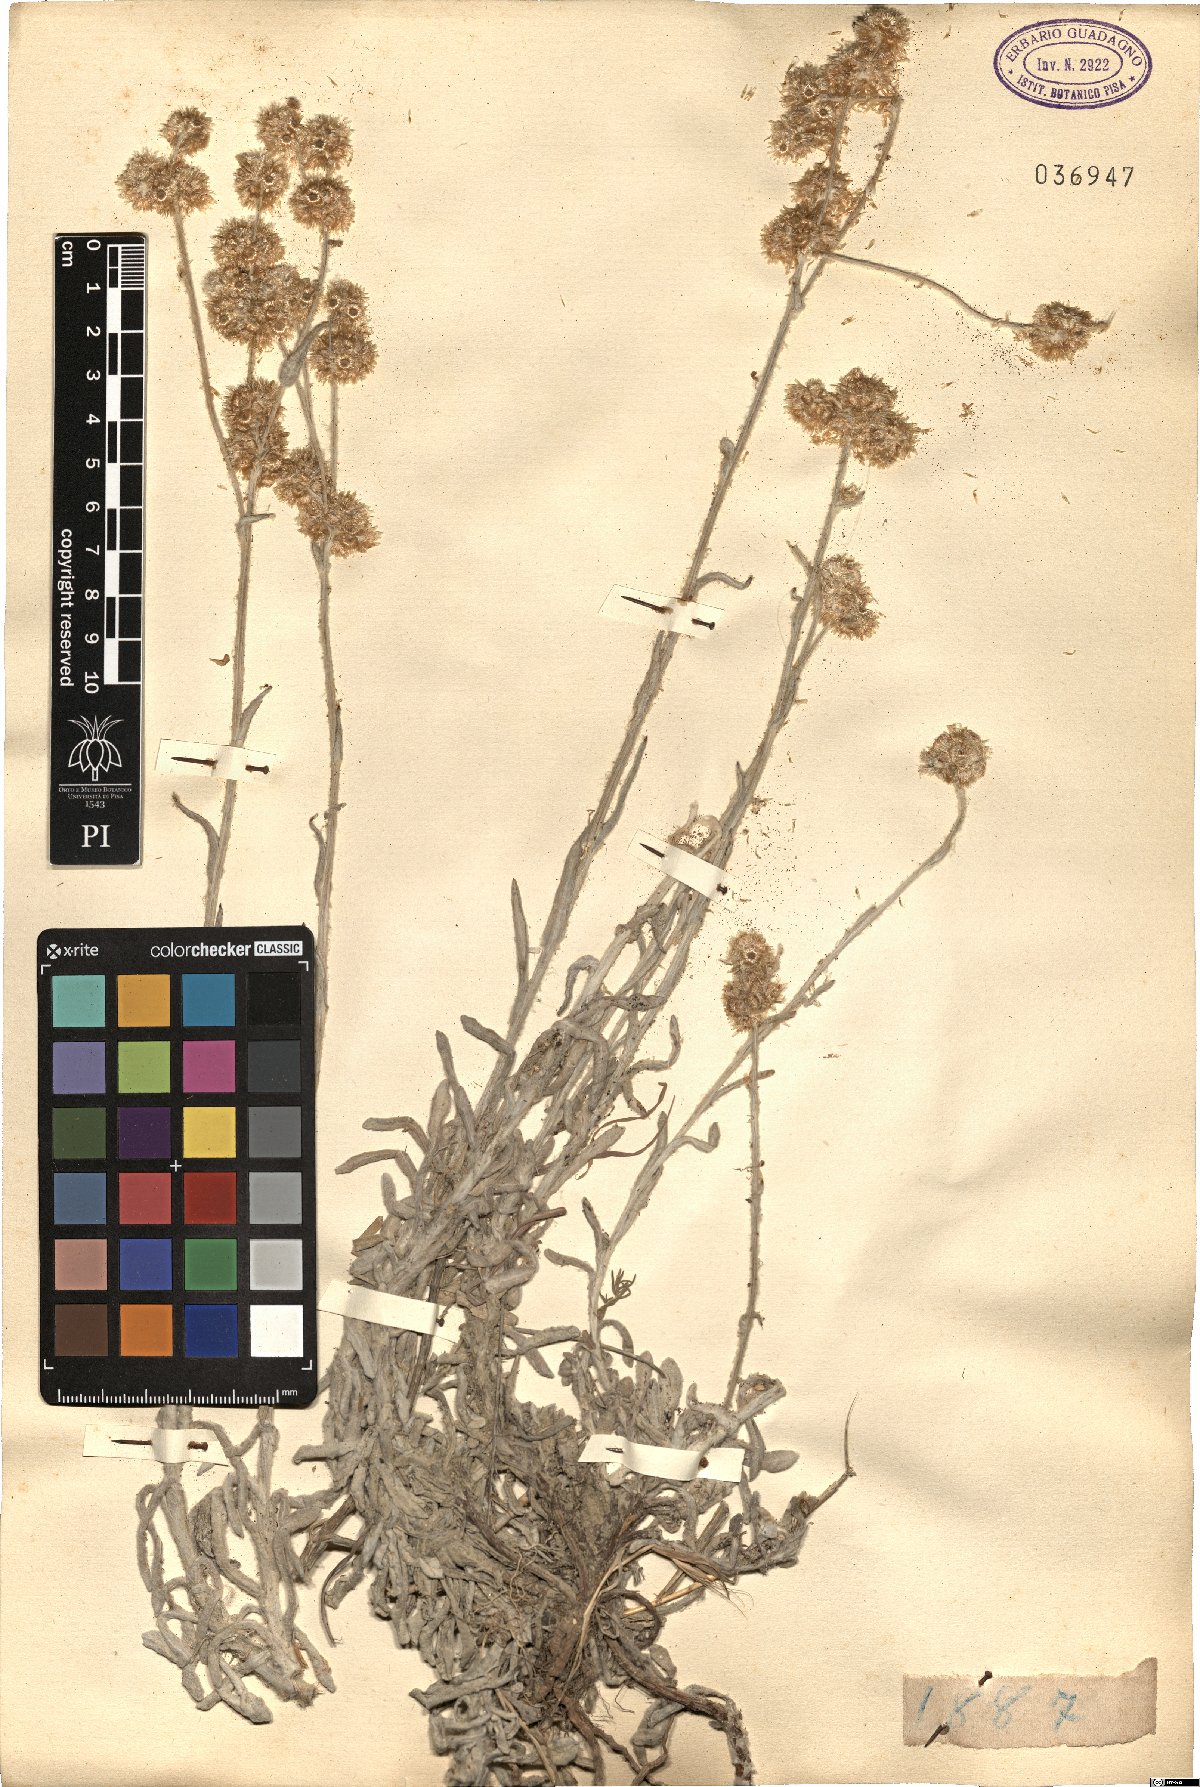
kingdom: Plantae
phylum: Tracheophyta
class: Magnoliopsida
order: Asterales
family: Asteraceae
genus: Gnaphalium
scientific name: Gnaphalium
